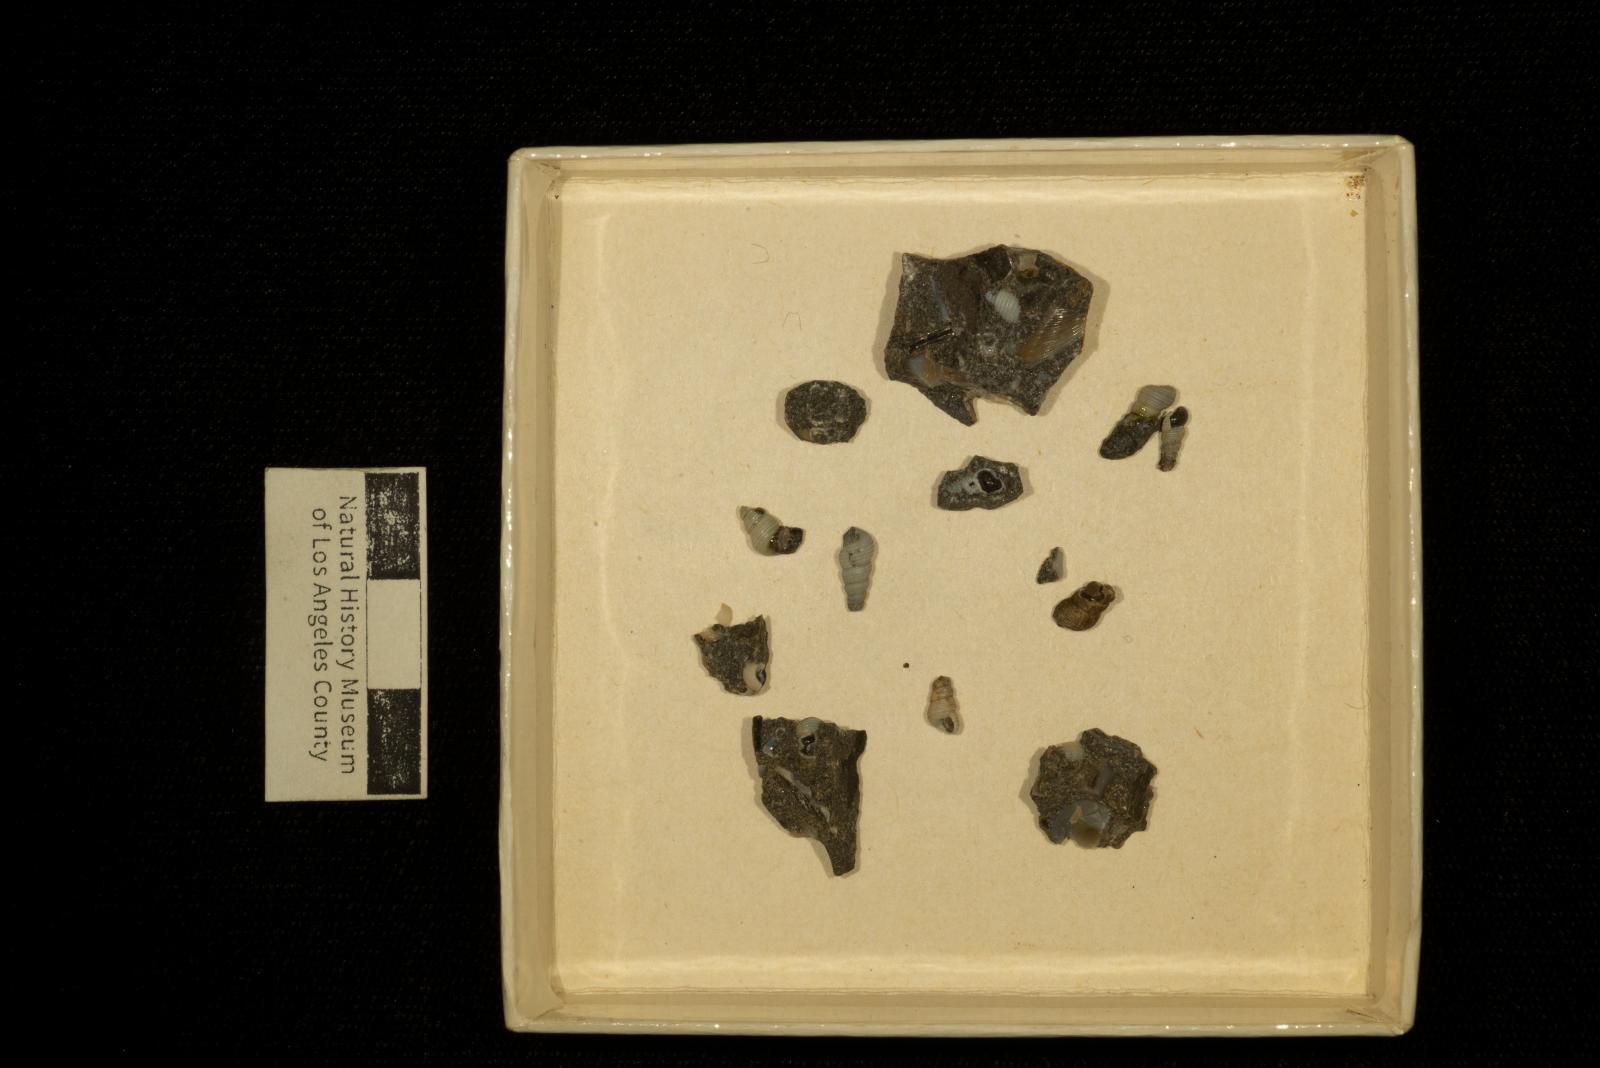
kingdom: Animalia
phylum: Mollusca
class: Gastropoda
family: Mathildidae
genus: Mathilda
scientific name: Mathilda
